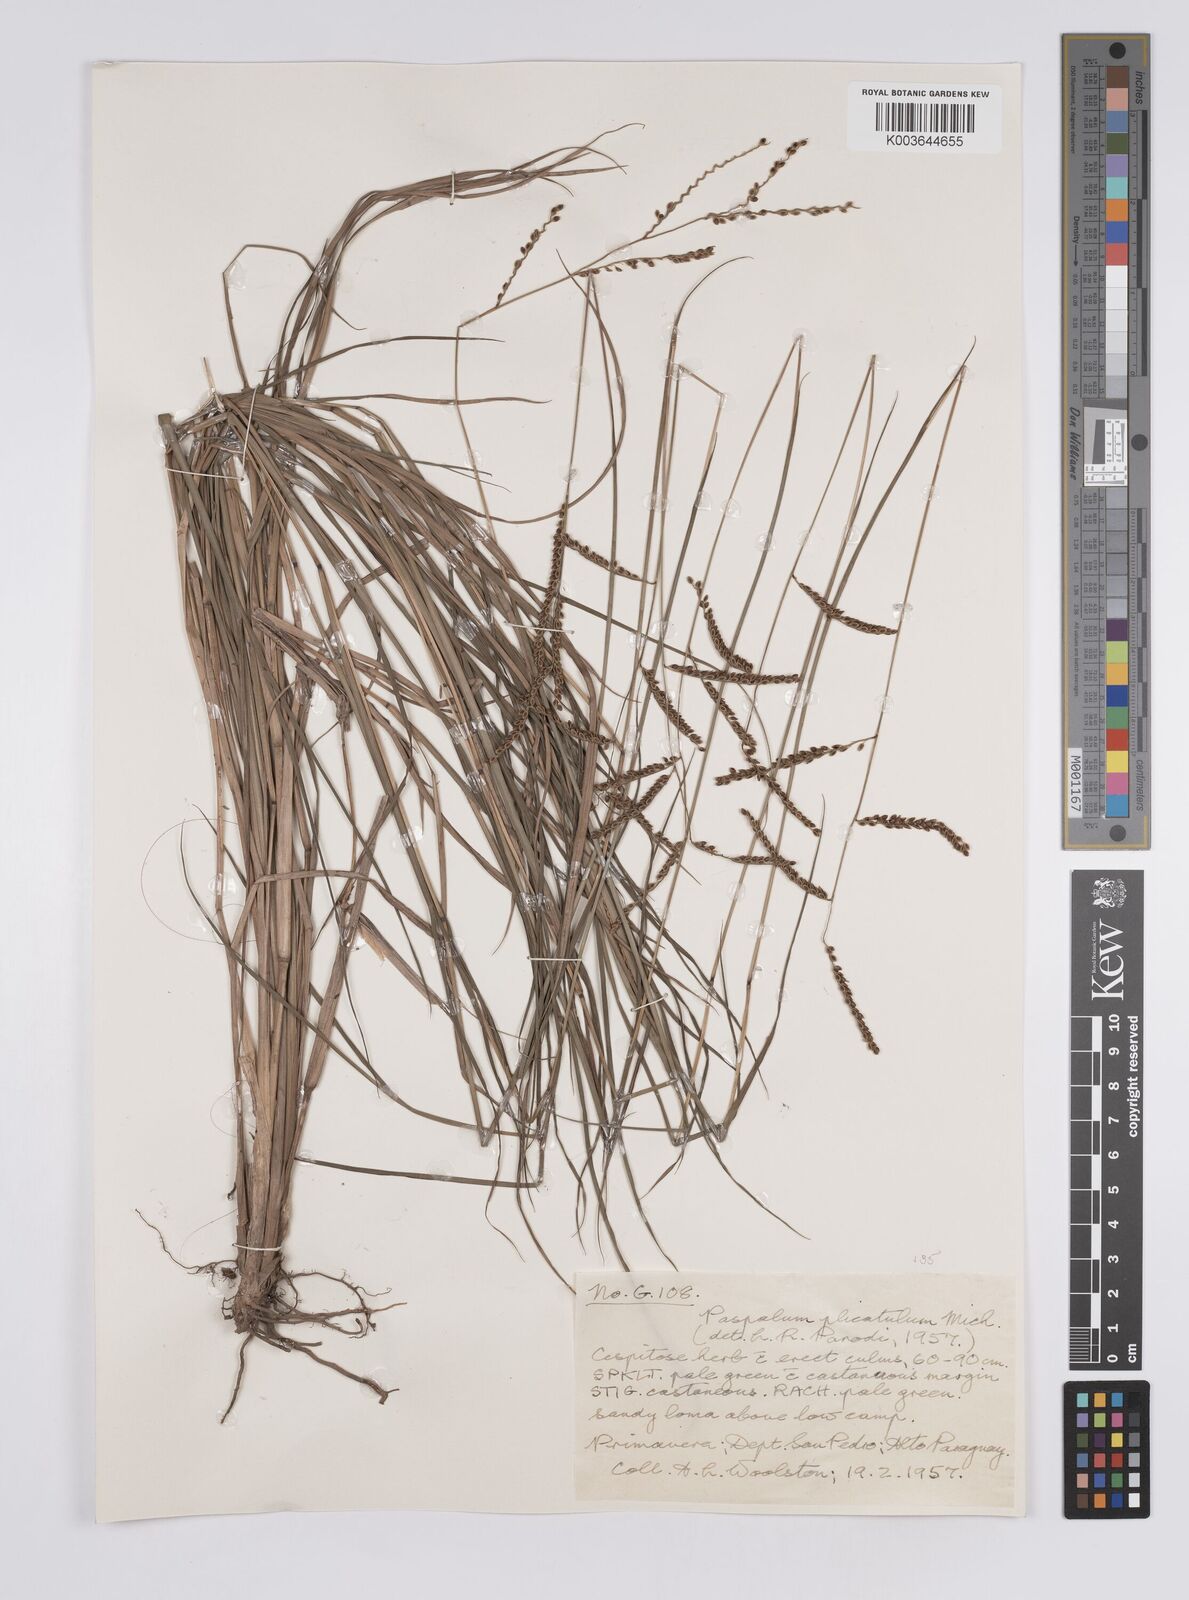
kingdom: Plantae
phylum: Tracheophyta
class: Liliopsida
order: Poales
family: Poaceae
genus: Paspalum
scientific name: Paspalum plicatulum
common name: Top paspalum
